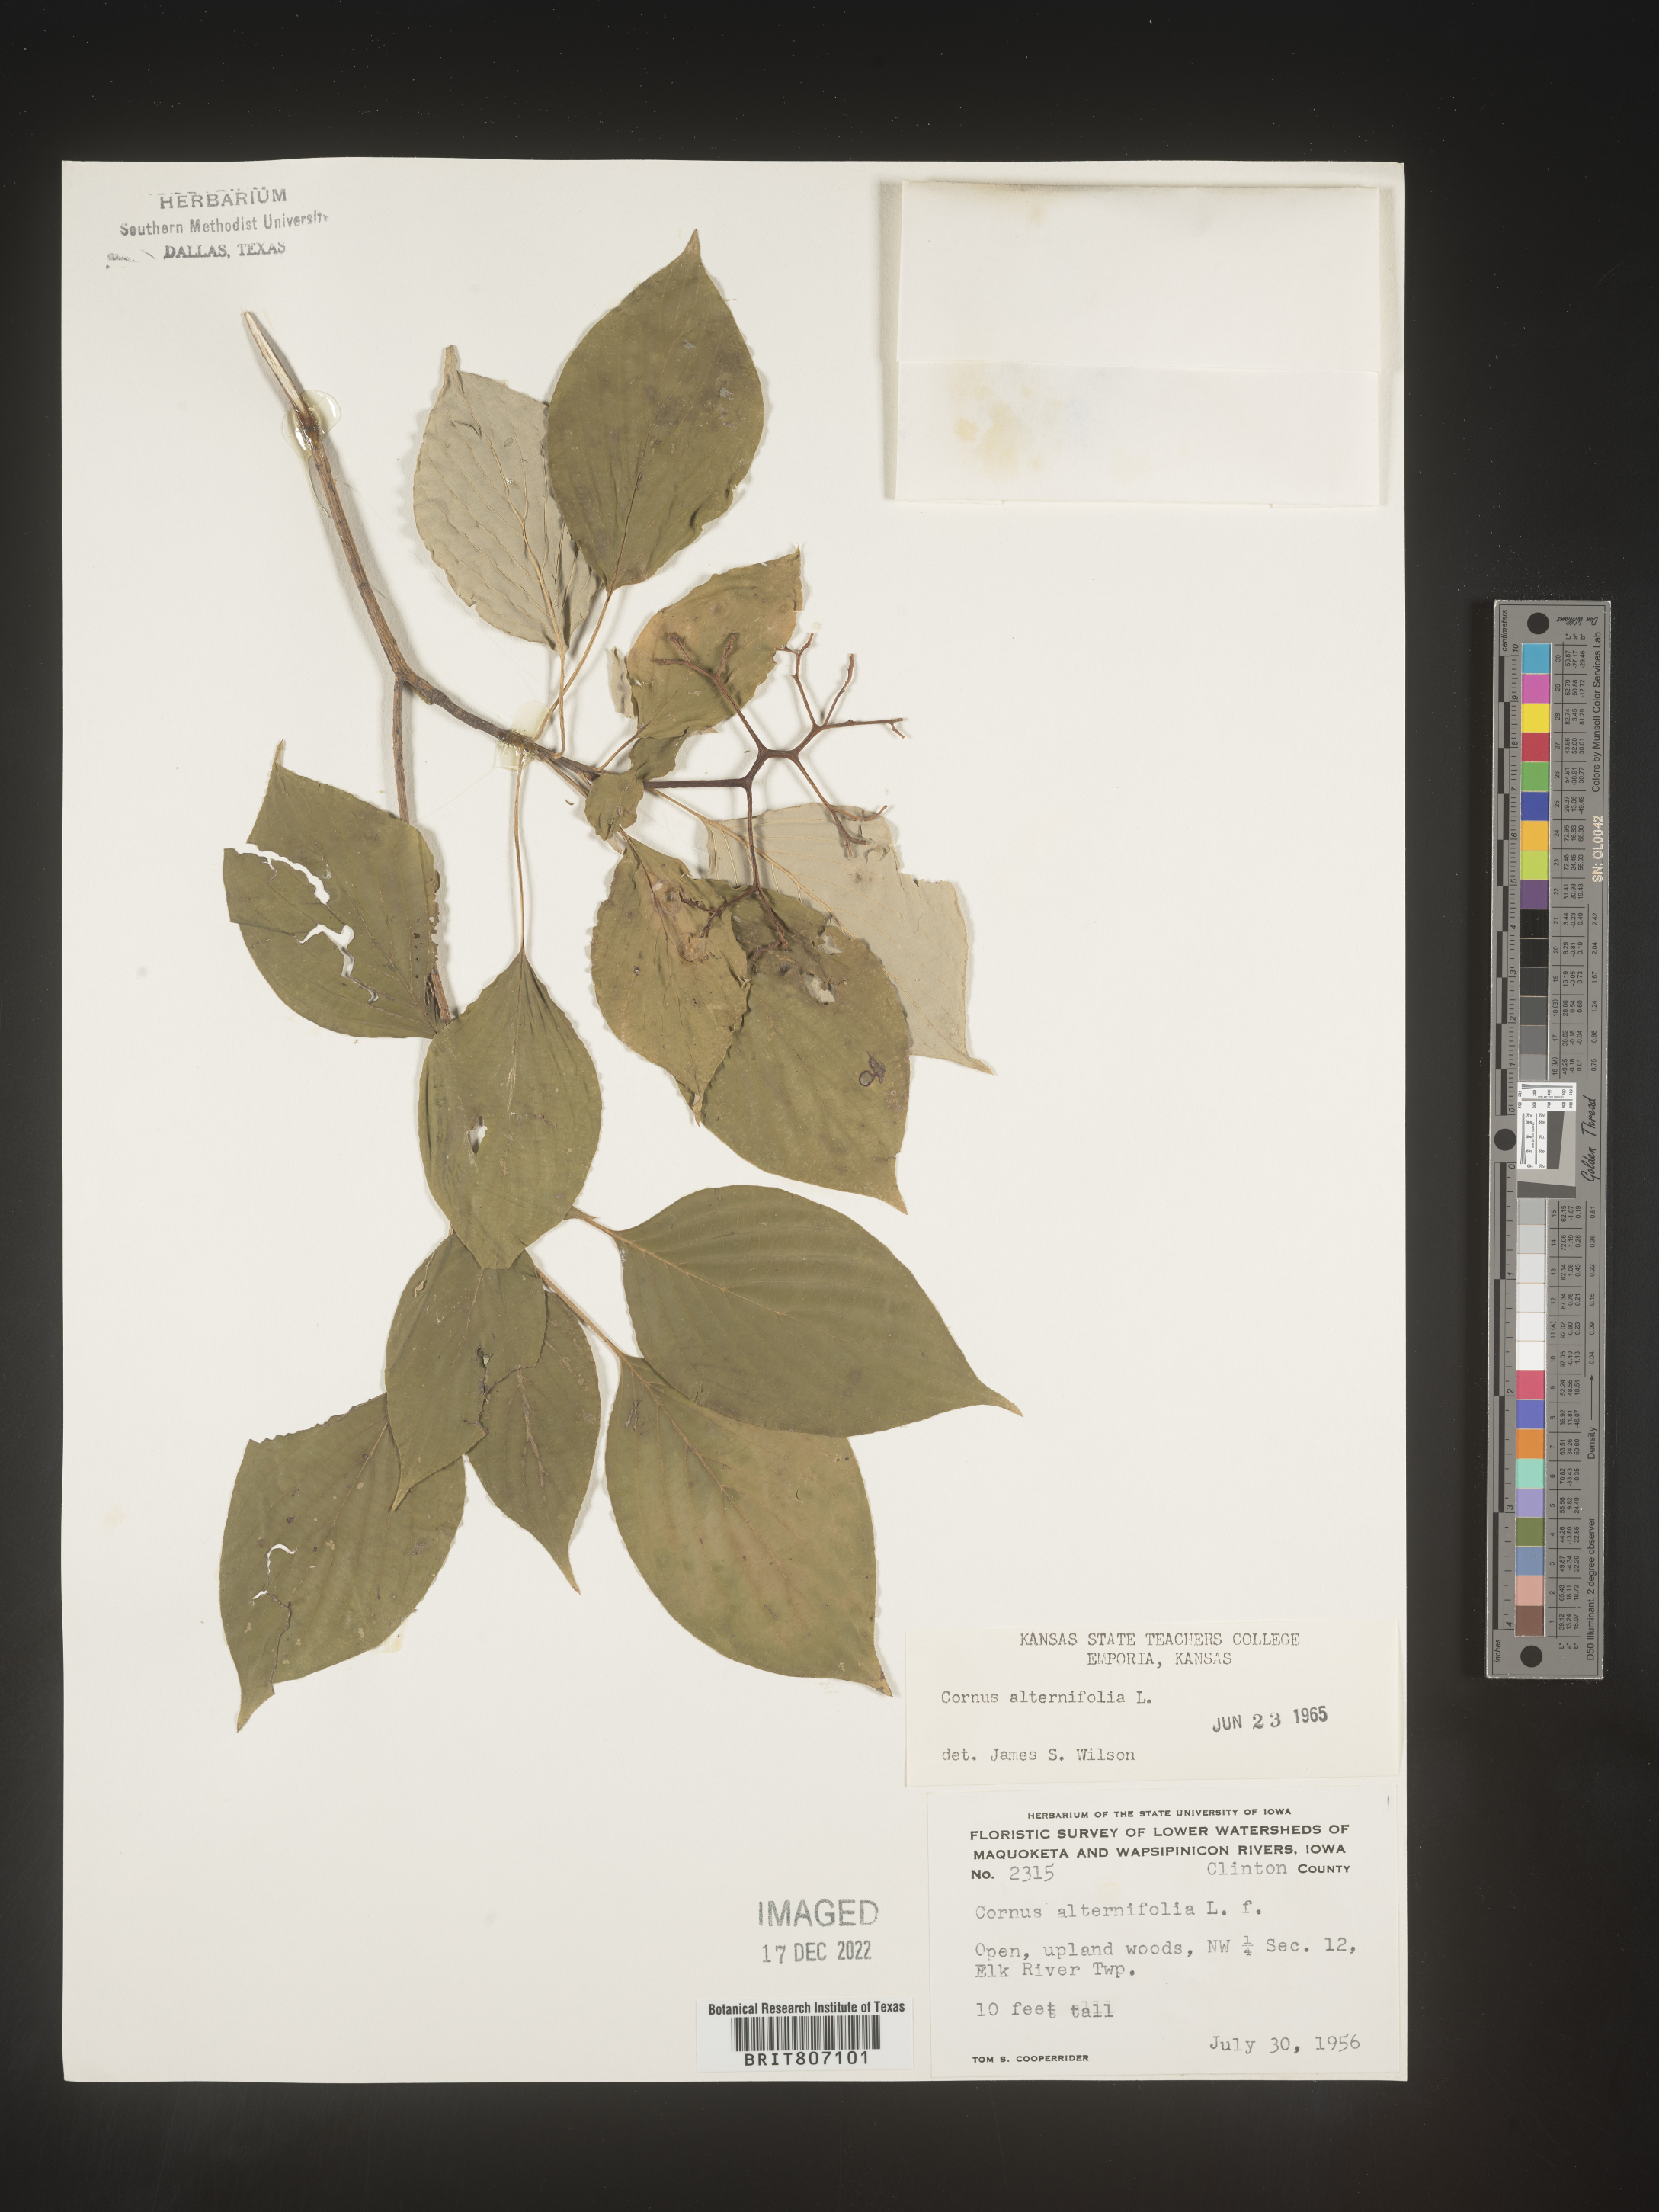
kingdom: Plantae
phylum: Tracheophyta
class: Magnoliopsida
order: Cornales
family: Cornaceae
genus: Cornus
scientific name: Cornus alternifolia
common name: Pagoda dogwood
